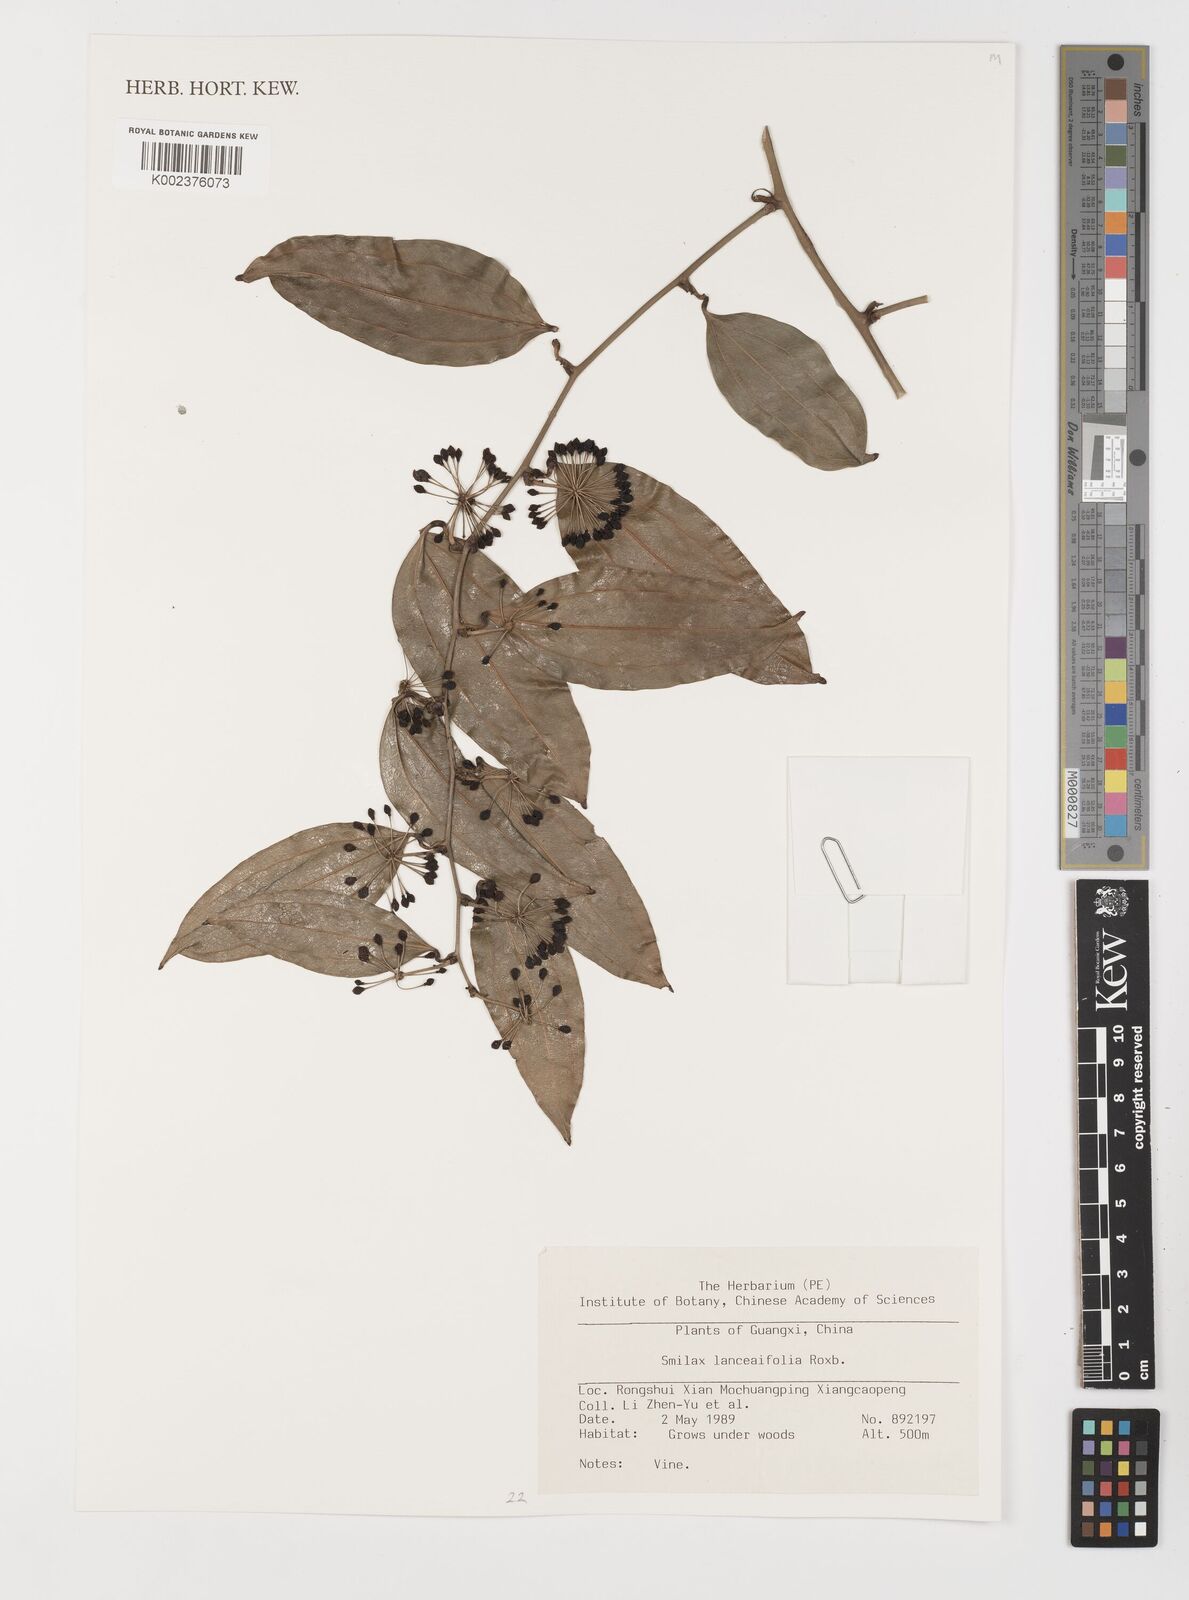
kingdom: Plantae
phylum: Tracheophyta
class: Liliopsida
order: Liliales
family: Smilacaceae
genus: Smilax
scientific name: Smilax lanceifolia
